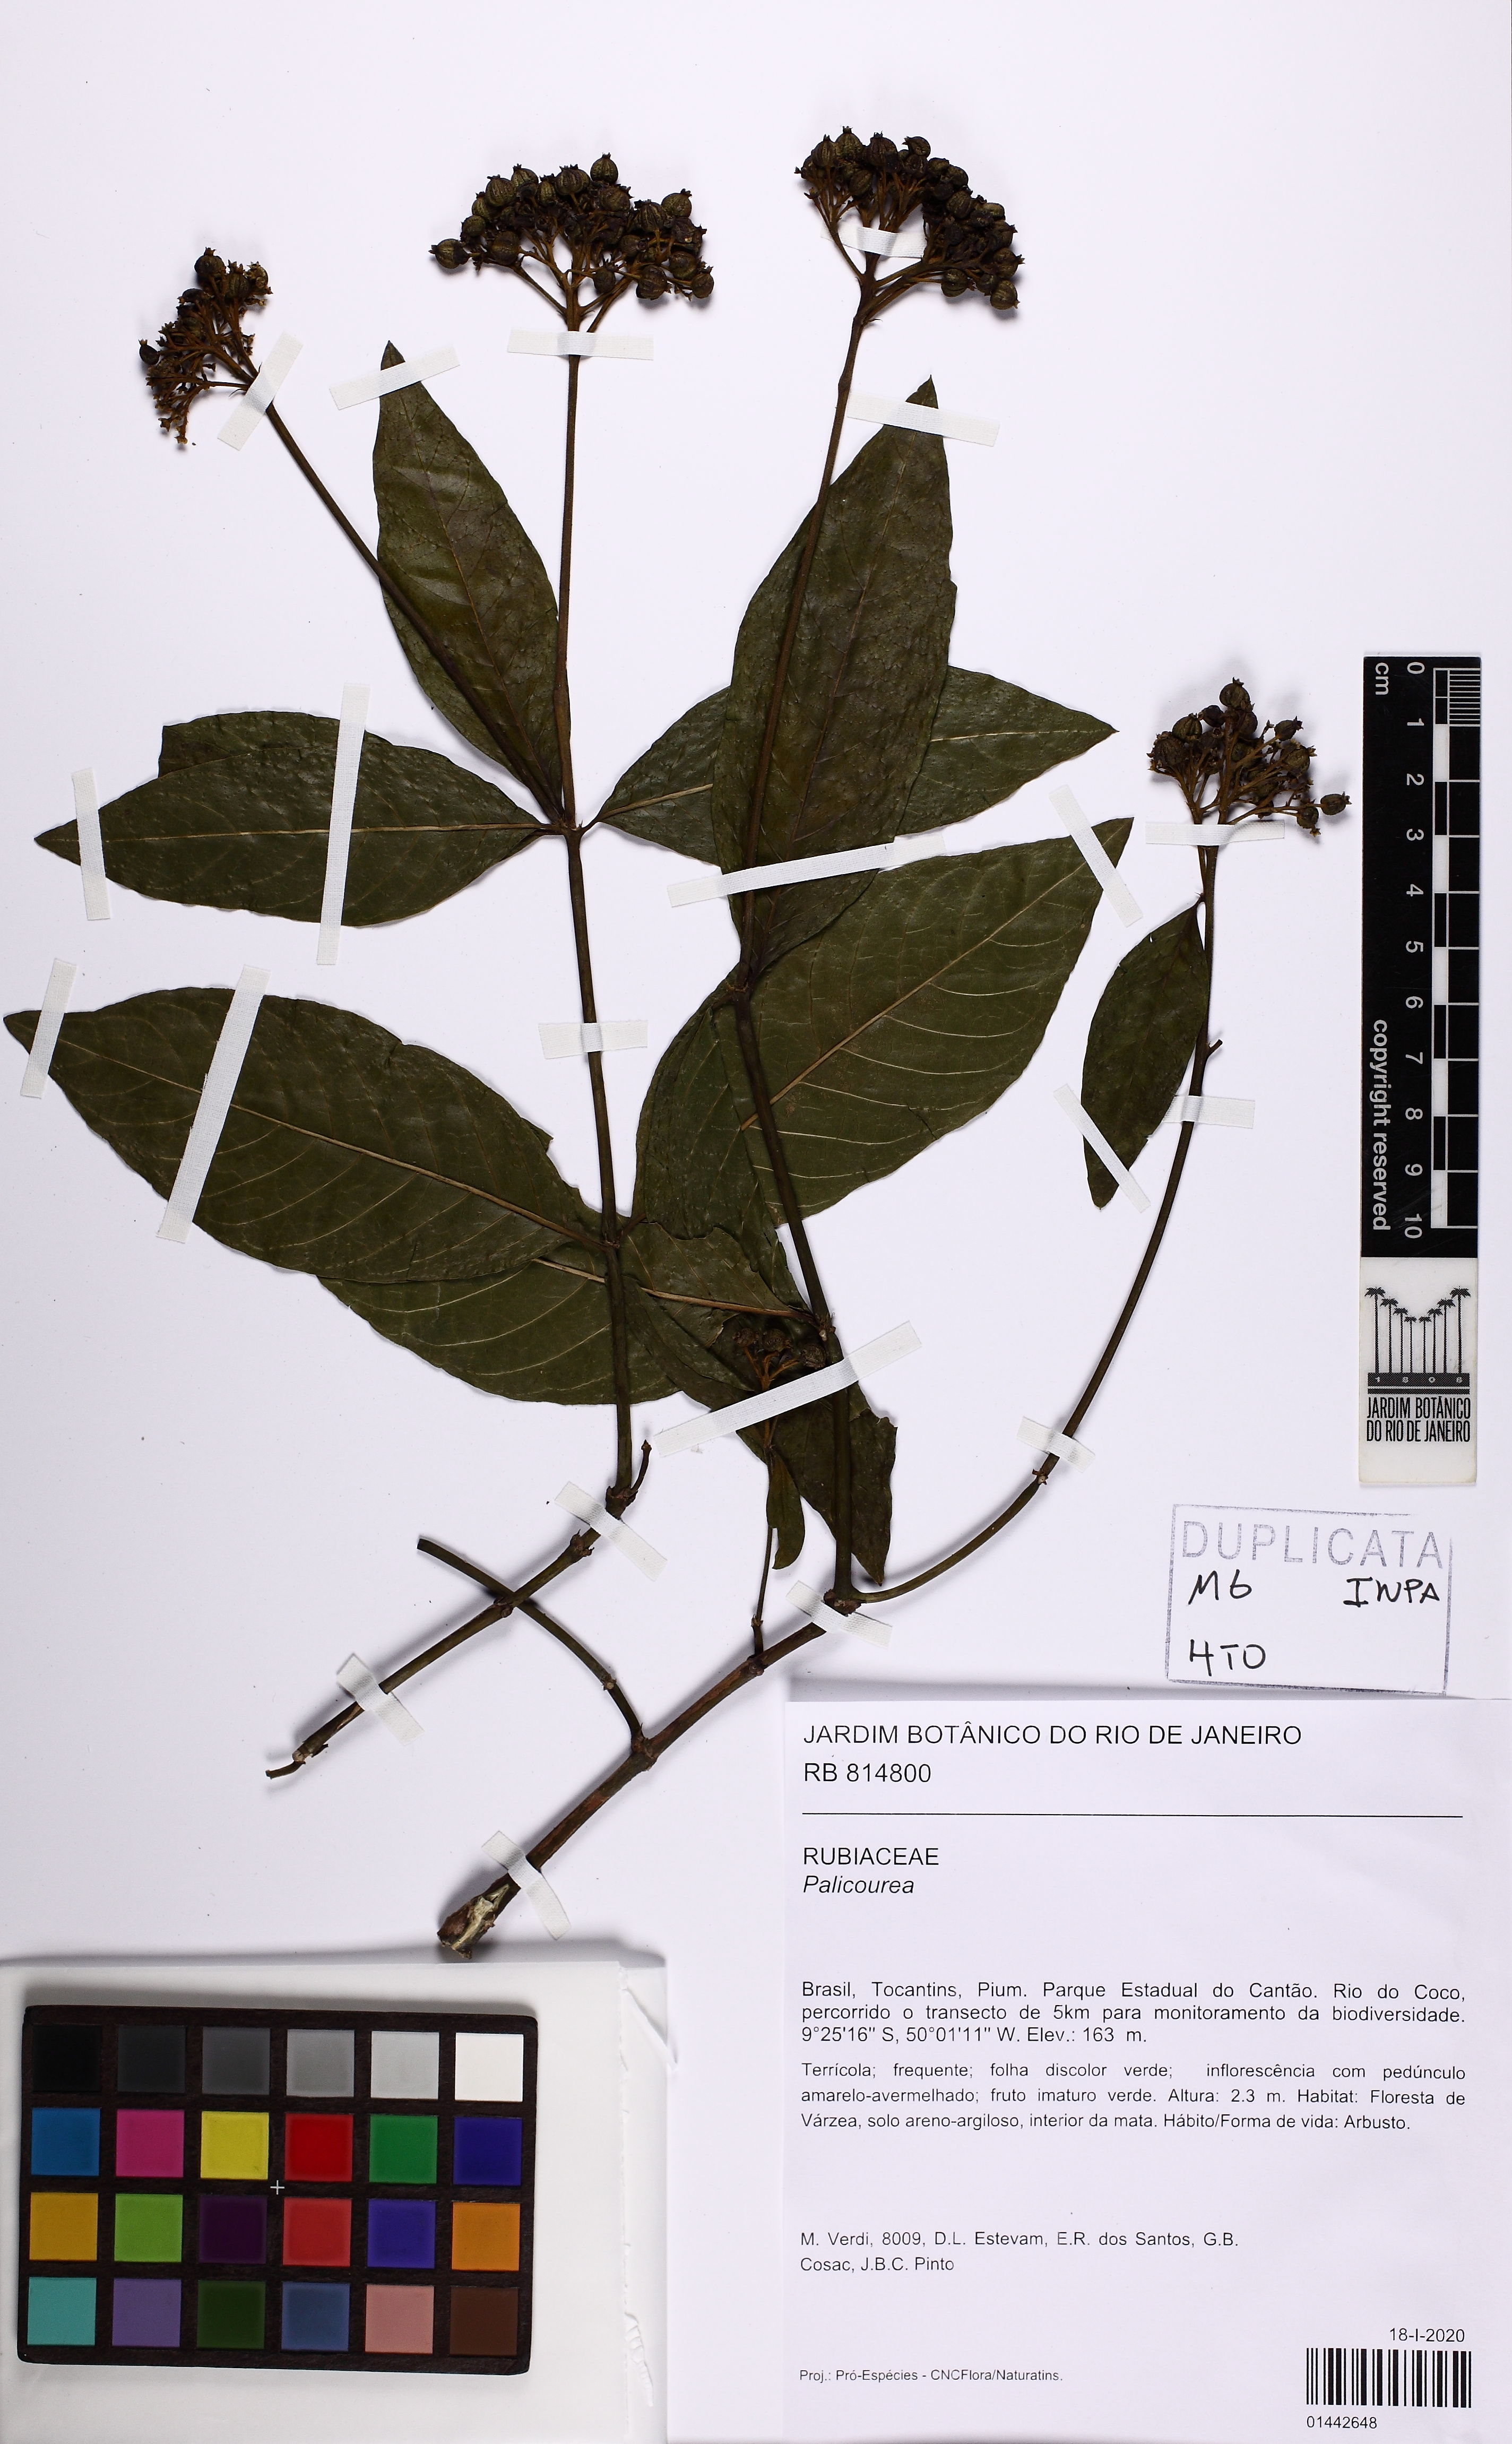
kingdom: Plantae
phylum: Tracheophyta
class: Magnoliopsida
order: Gentianales
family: Rubiaceae
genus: Palicourea
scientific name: Palicourea
